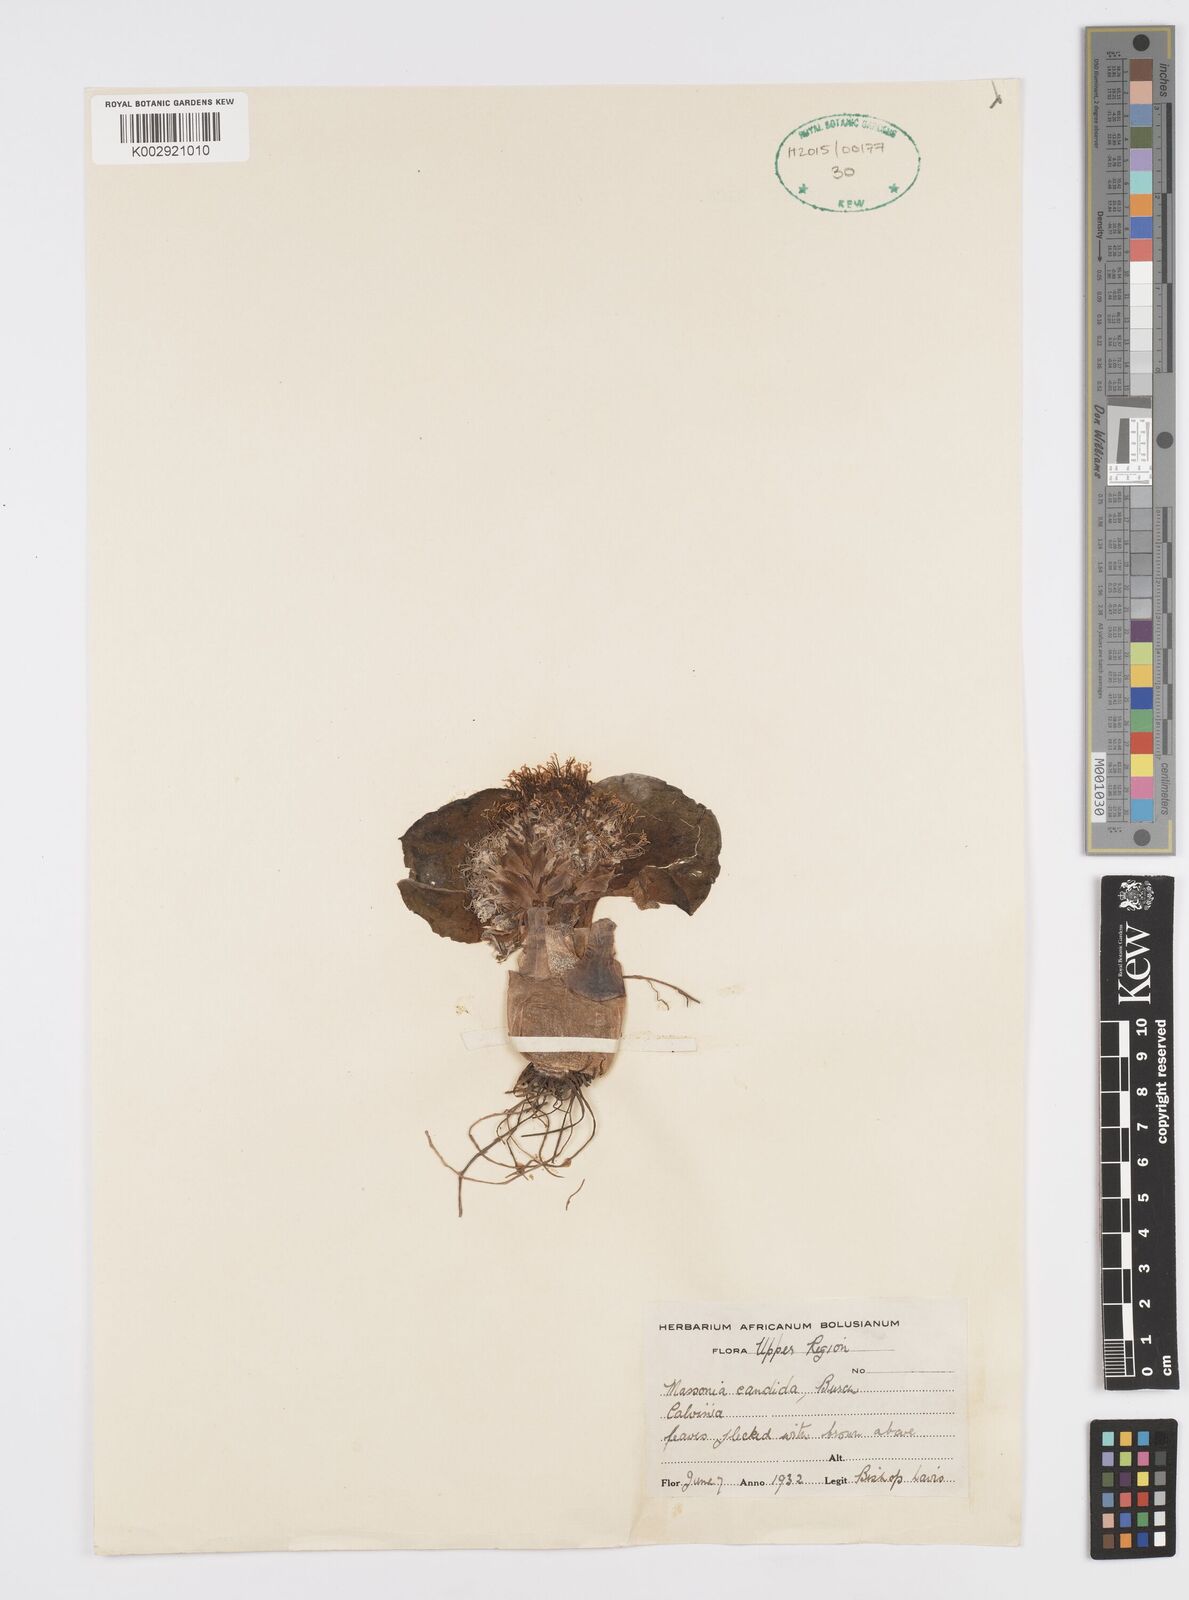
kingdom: Plantae
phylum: Tracheophyta
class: Liliopsida
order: Asparagales
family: Asparagaceae
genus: Massonia
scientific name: Massonia
